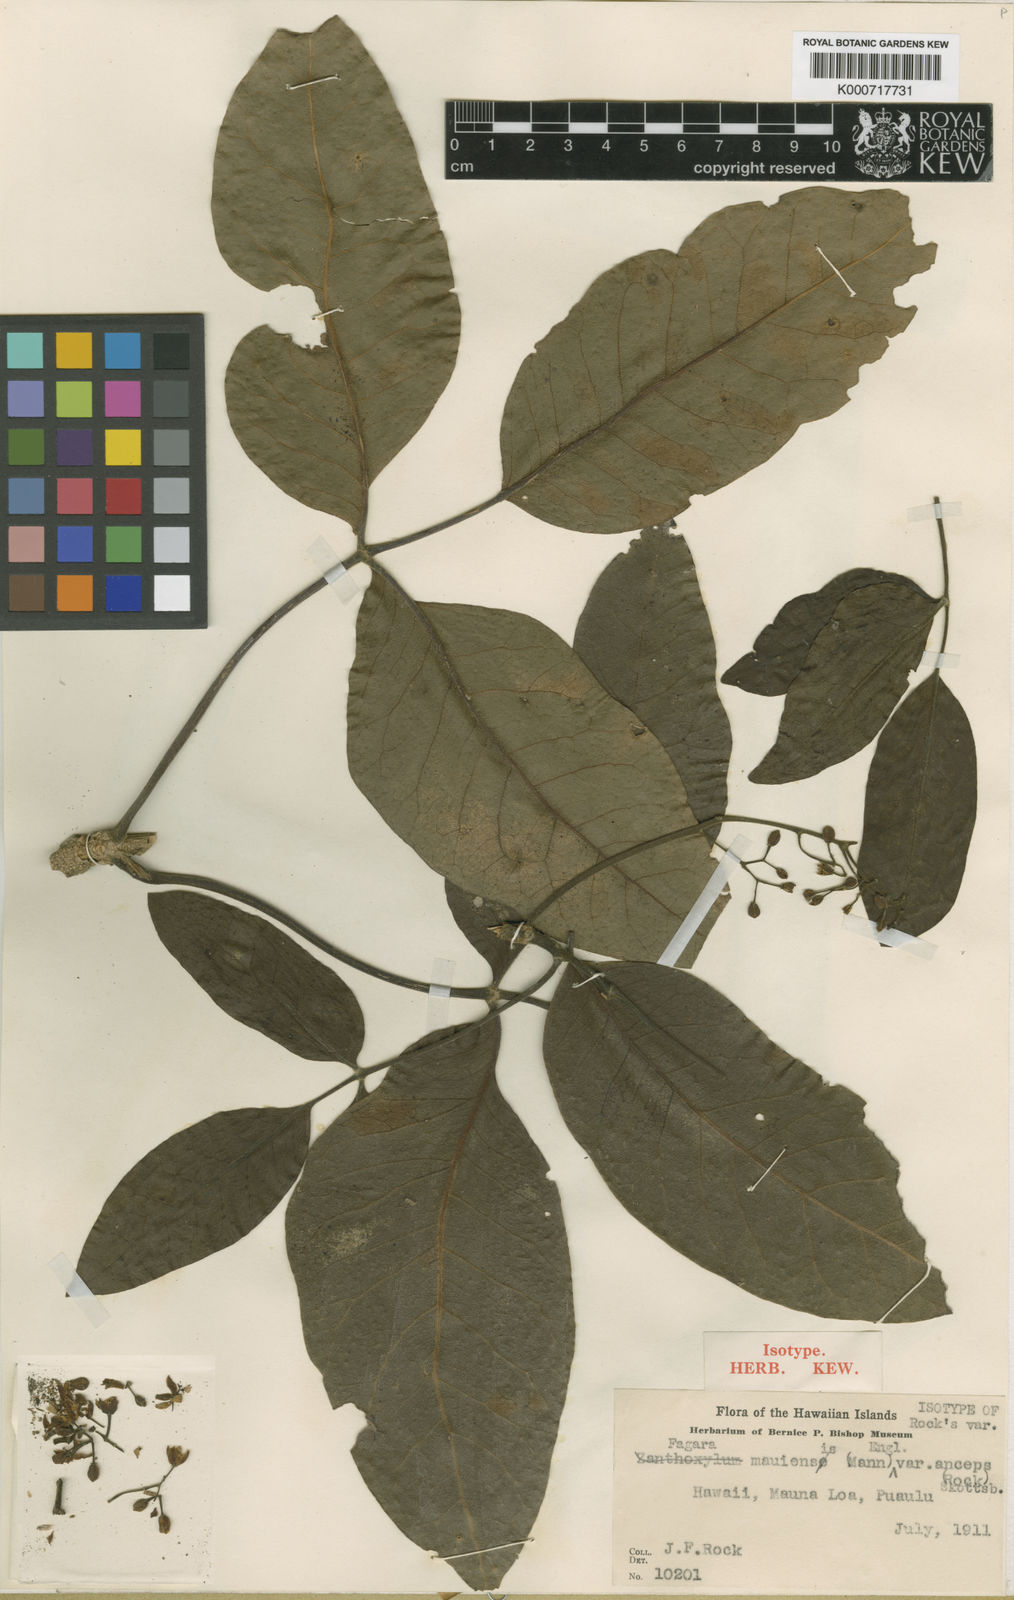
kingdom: Plantae
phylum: Tracheophyta
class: Magnoliopsida
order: Sapindales
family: Rutaceae
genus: Zanthoxylum
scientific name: Zanthoxylum kauaense
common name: Kauai prickly-ash
